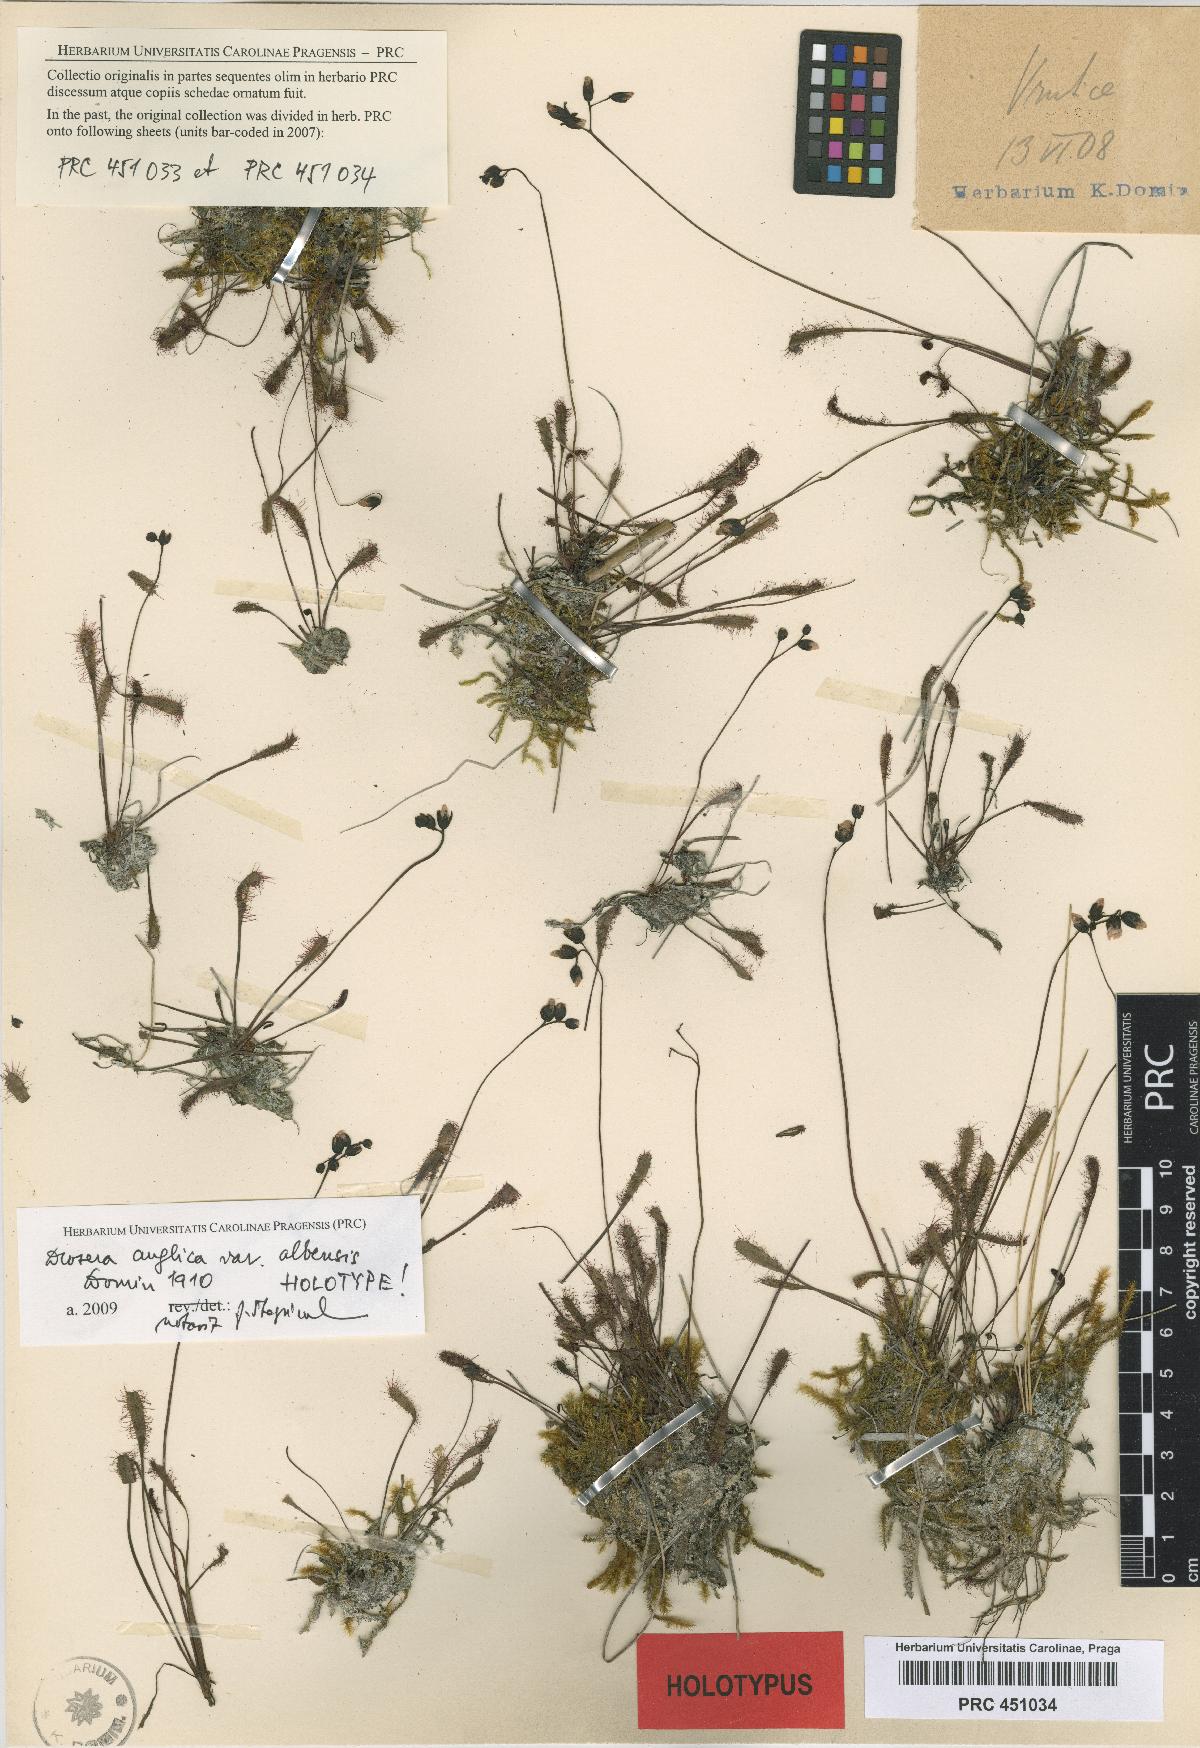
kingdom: Plantae
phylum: Tracheophyta
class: Magnoliopsida
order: Caryophyllales
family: Droseraceae
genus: Drosera
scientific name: Drosera anglica
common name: Great sundew
